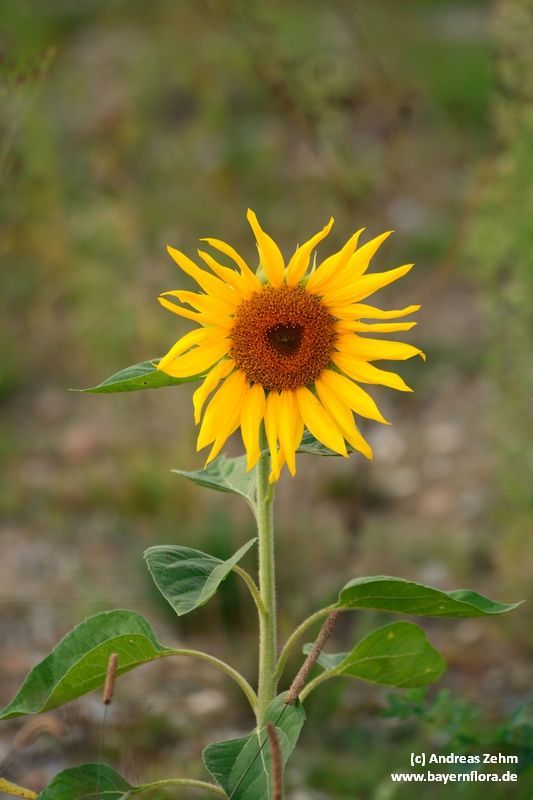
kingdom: Plantae
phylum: Tracheophyta
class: Magnoliopsida
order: Asterales
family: Asteraceae
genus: Helianthus
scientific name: Helianthus annuus
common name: Sunflower
